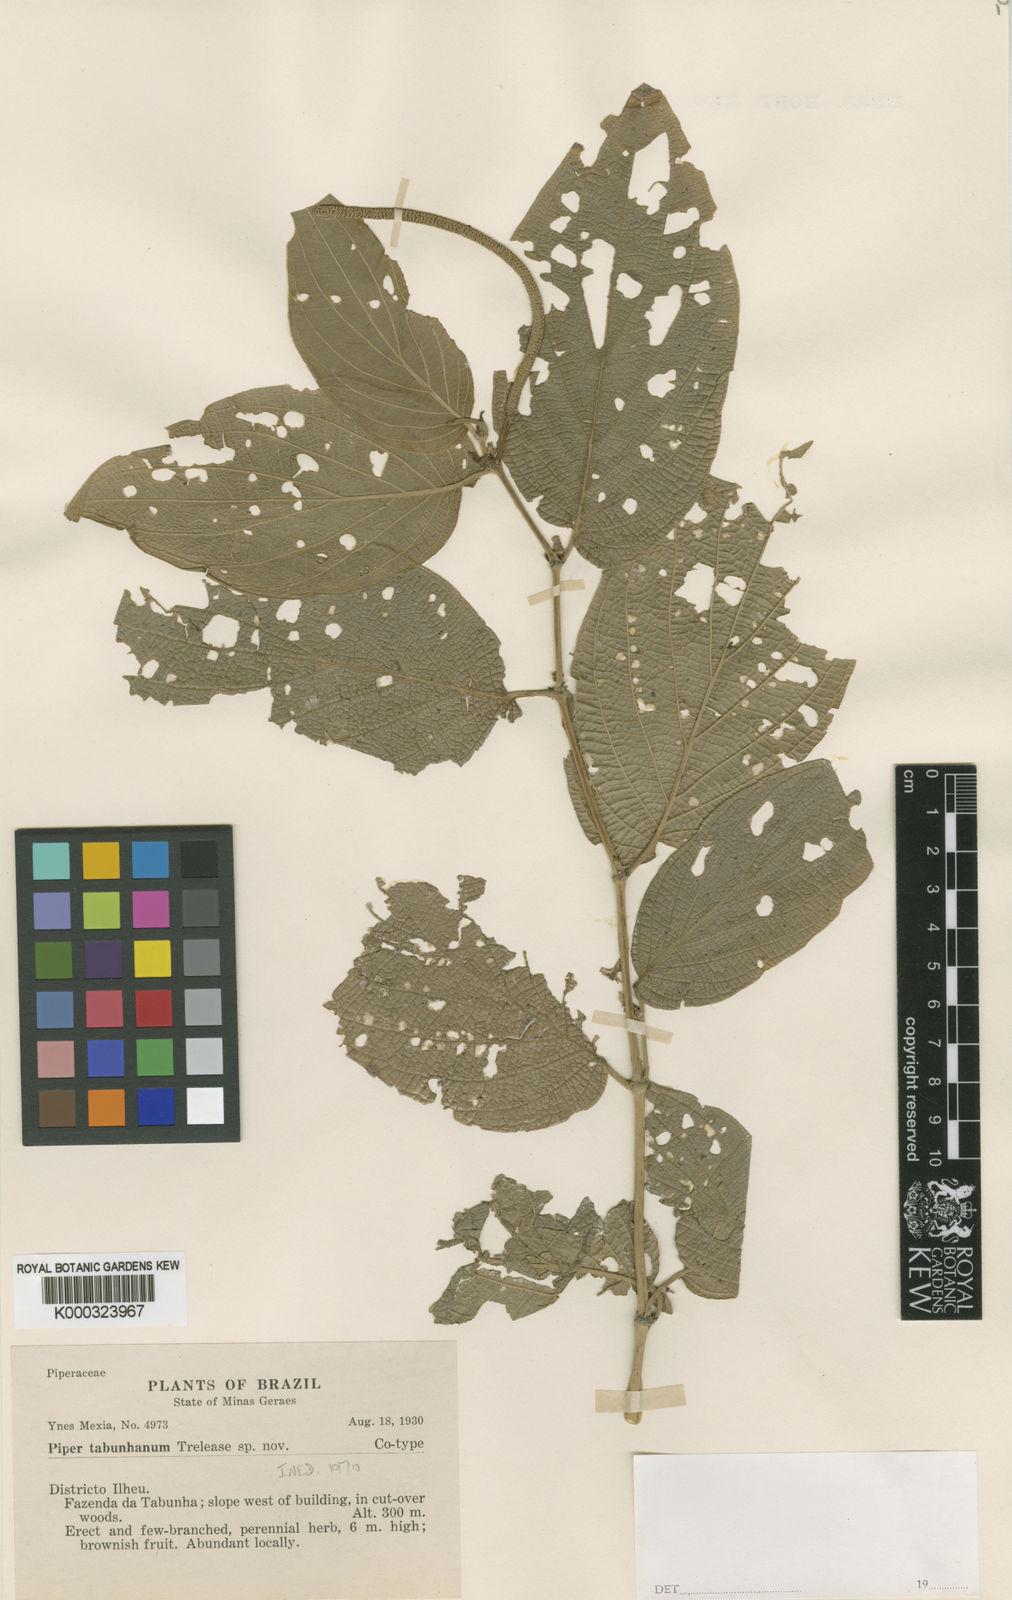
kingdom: Plantae
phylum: Tracheophyta
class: Magnoliopsida
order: Piperales
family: Piperaceae
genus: Piper
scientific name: Piper pauciramosum
